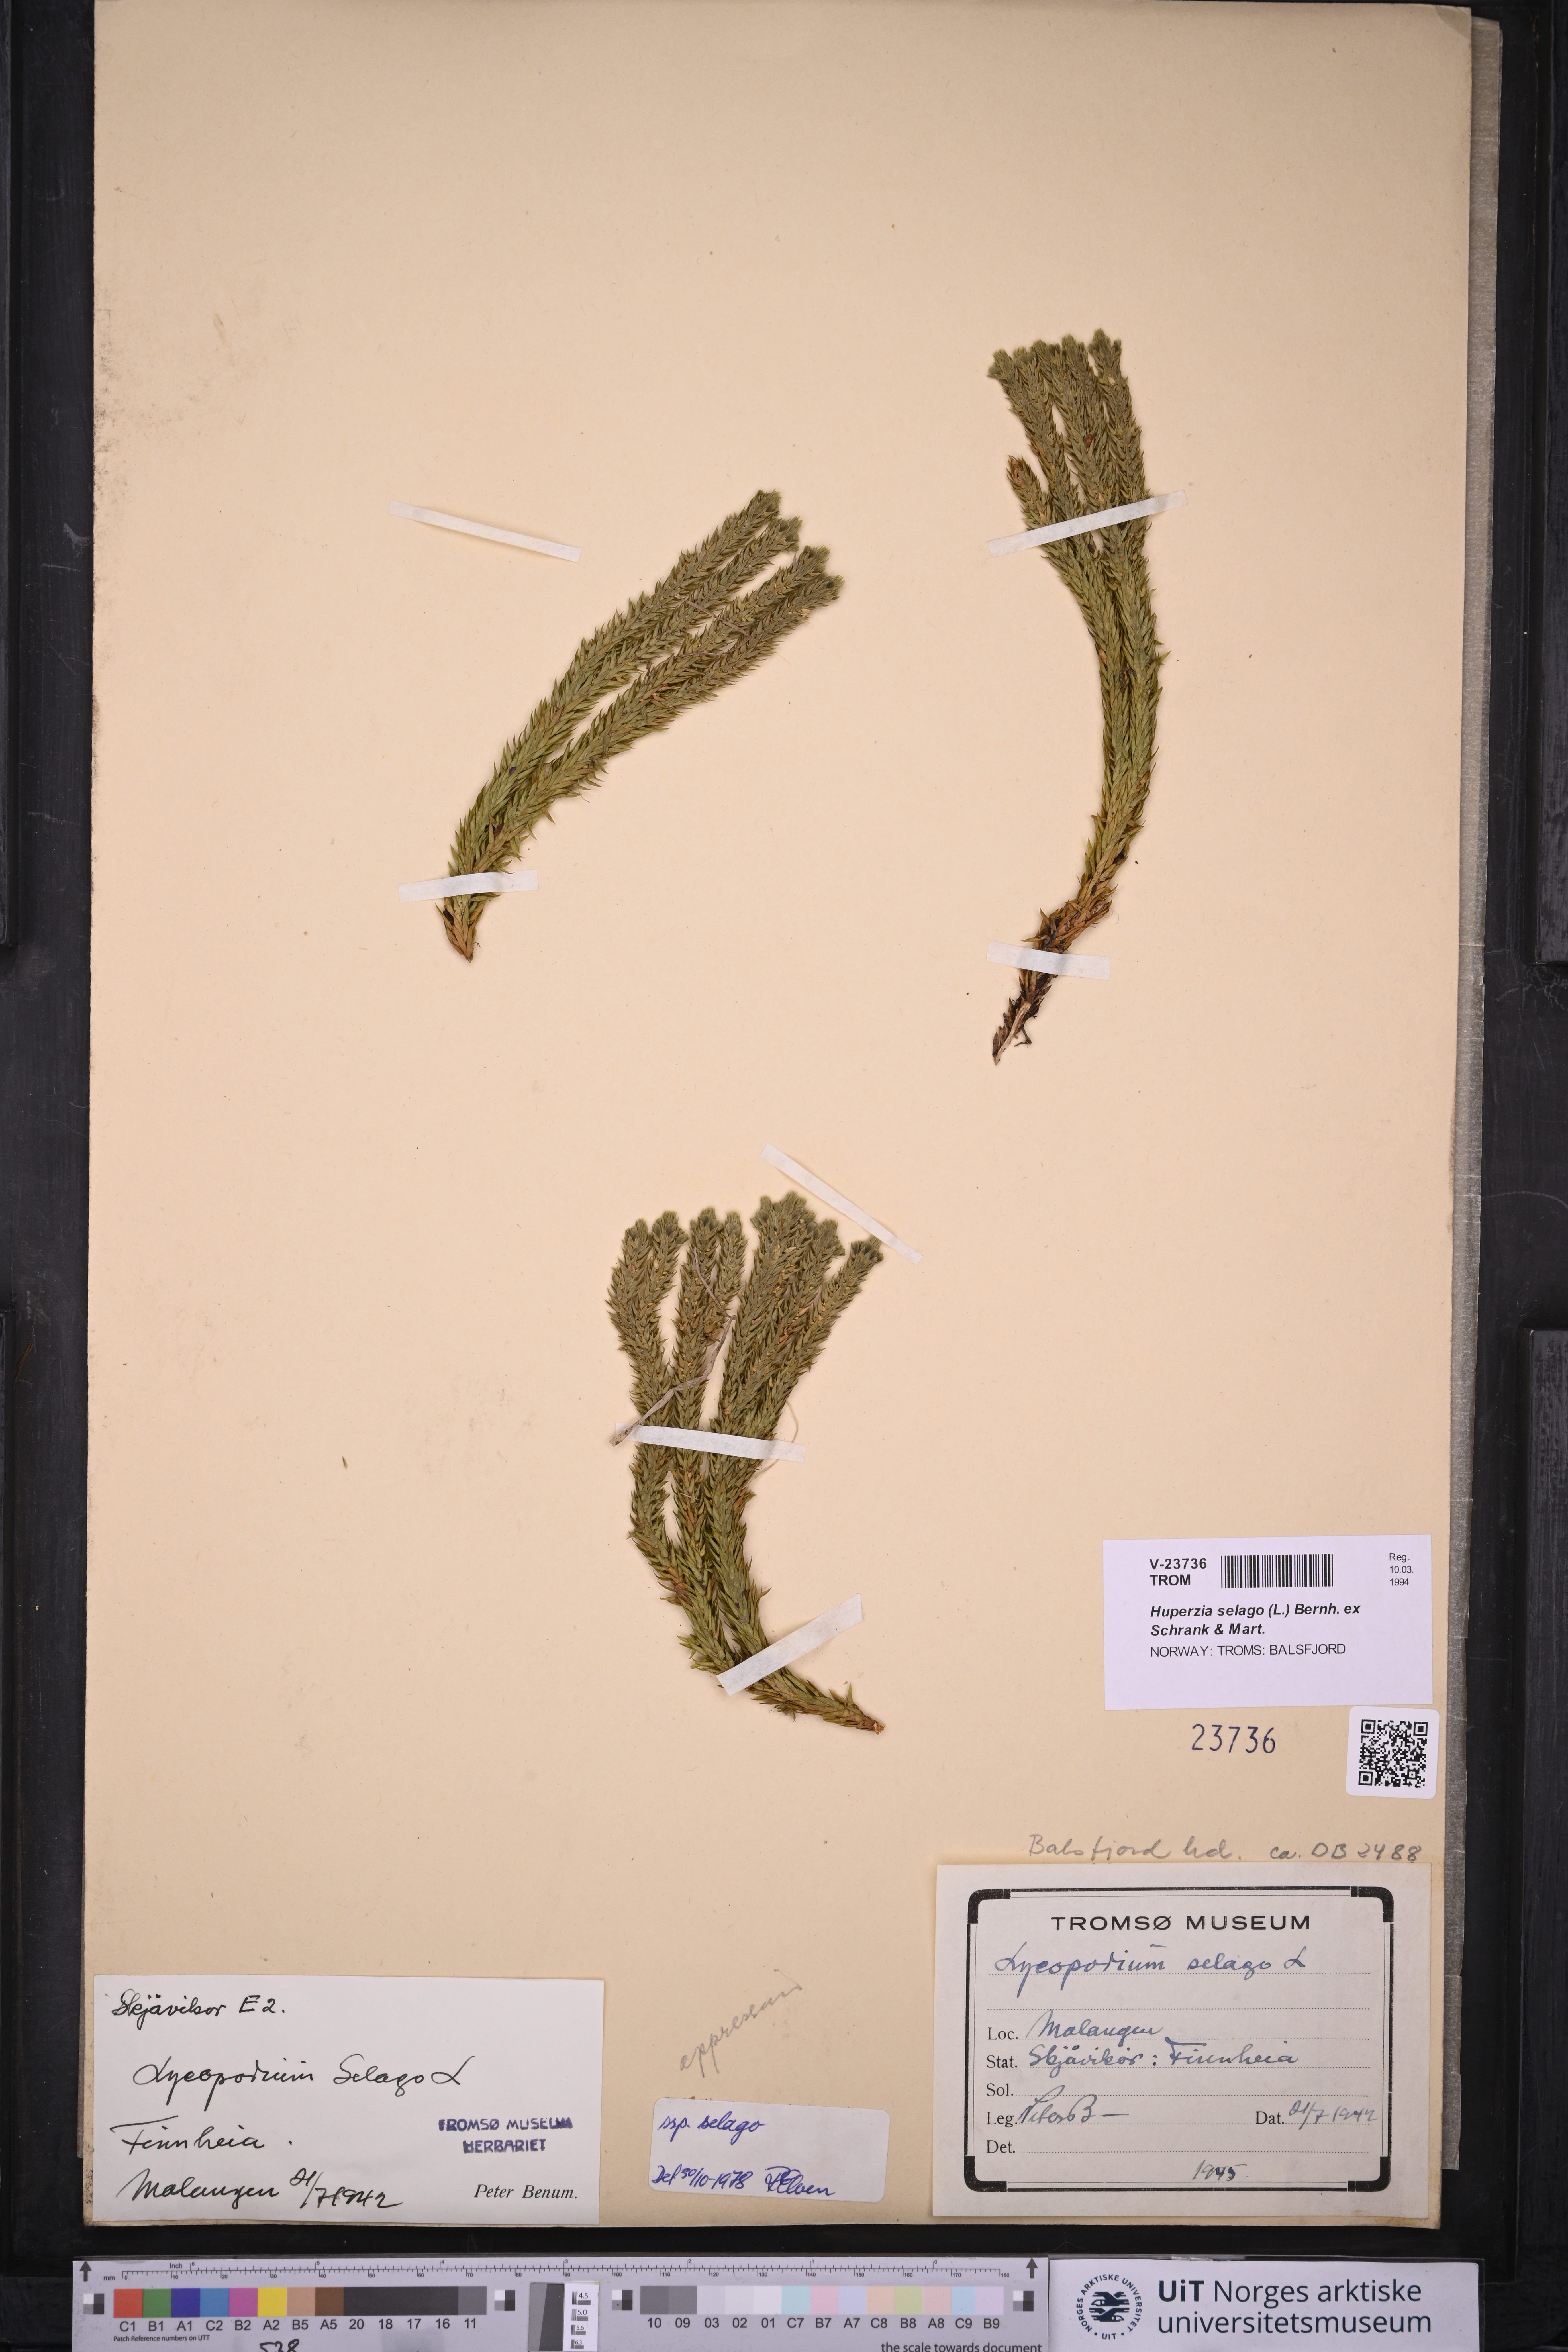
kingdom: Plantae
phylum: Tracheophyta
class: Lycopodiopsida
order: Lycopodiales
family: Lycopodiaceae
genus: Huperzia
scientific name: Huperzia selago
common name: Northern firmoss
